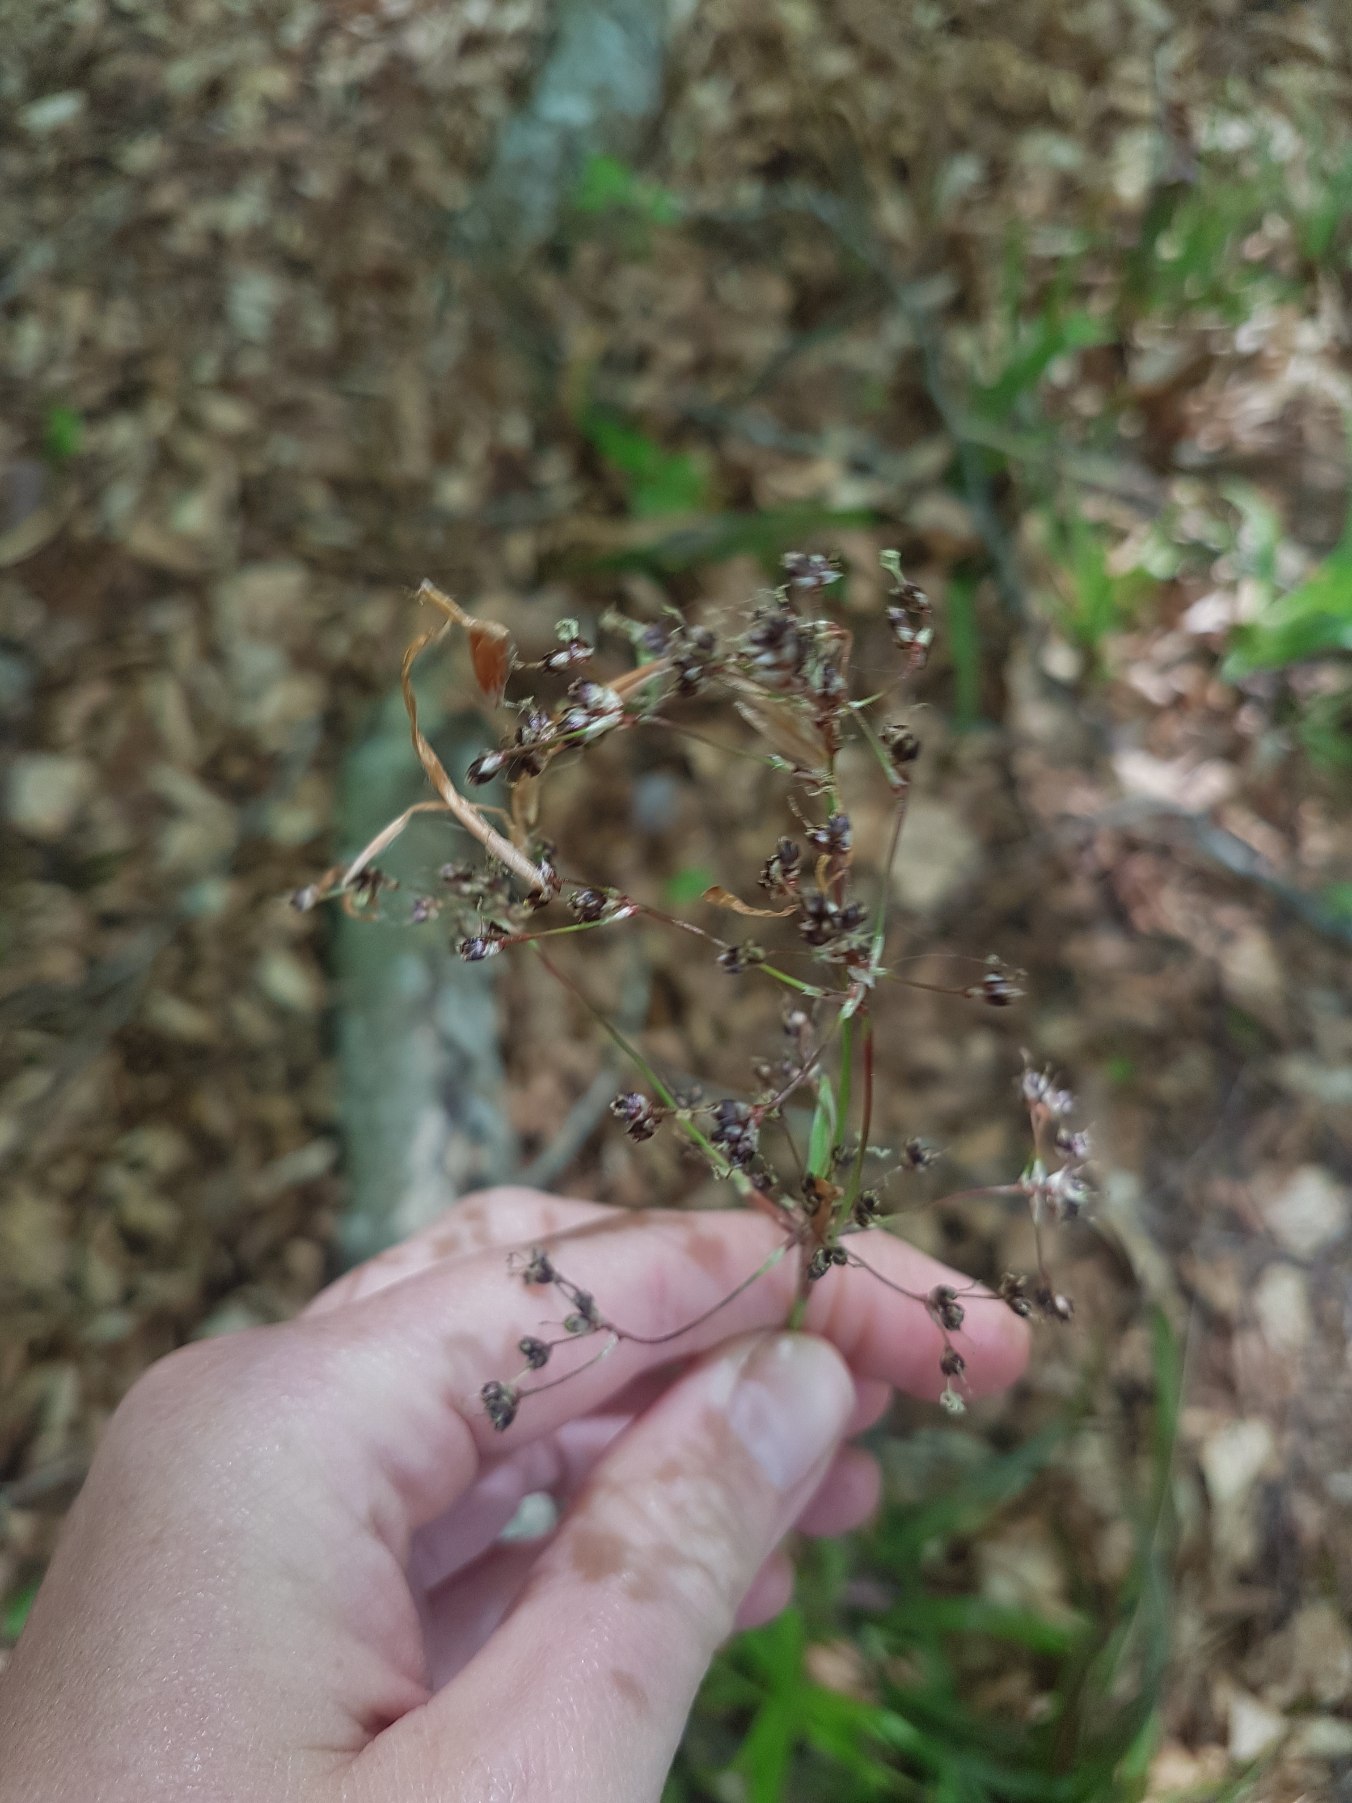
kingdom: Plantae
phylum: Tracheophyta
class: Liliopsida
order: Poales
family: Juncaceae
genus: Luzula
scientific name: Luzula sylvatica
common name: Stor frytle
